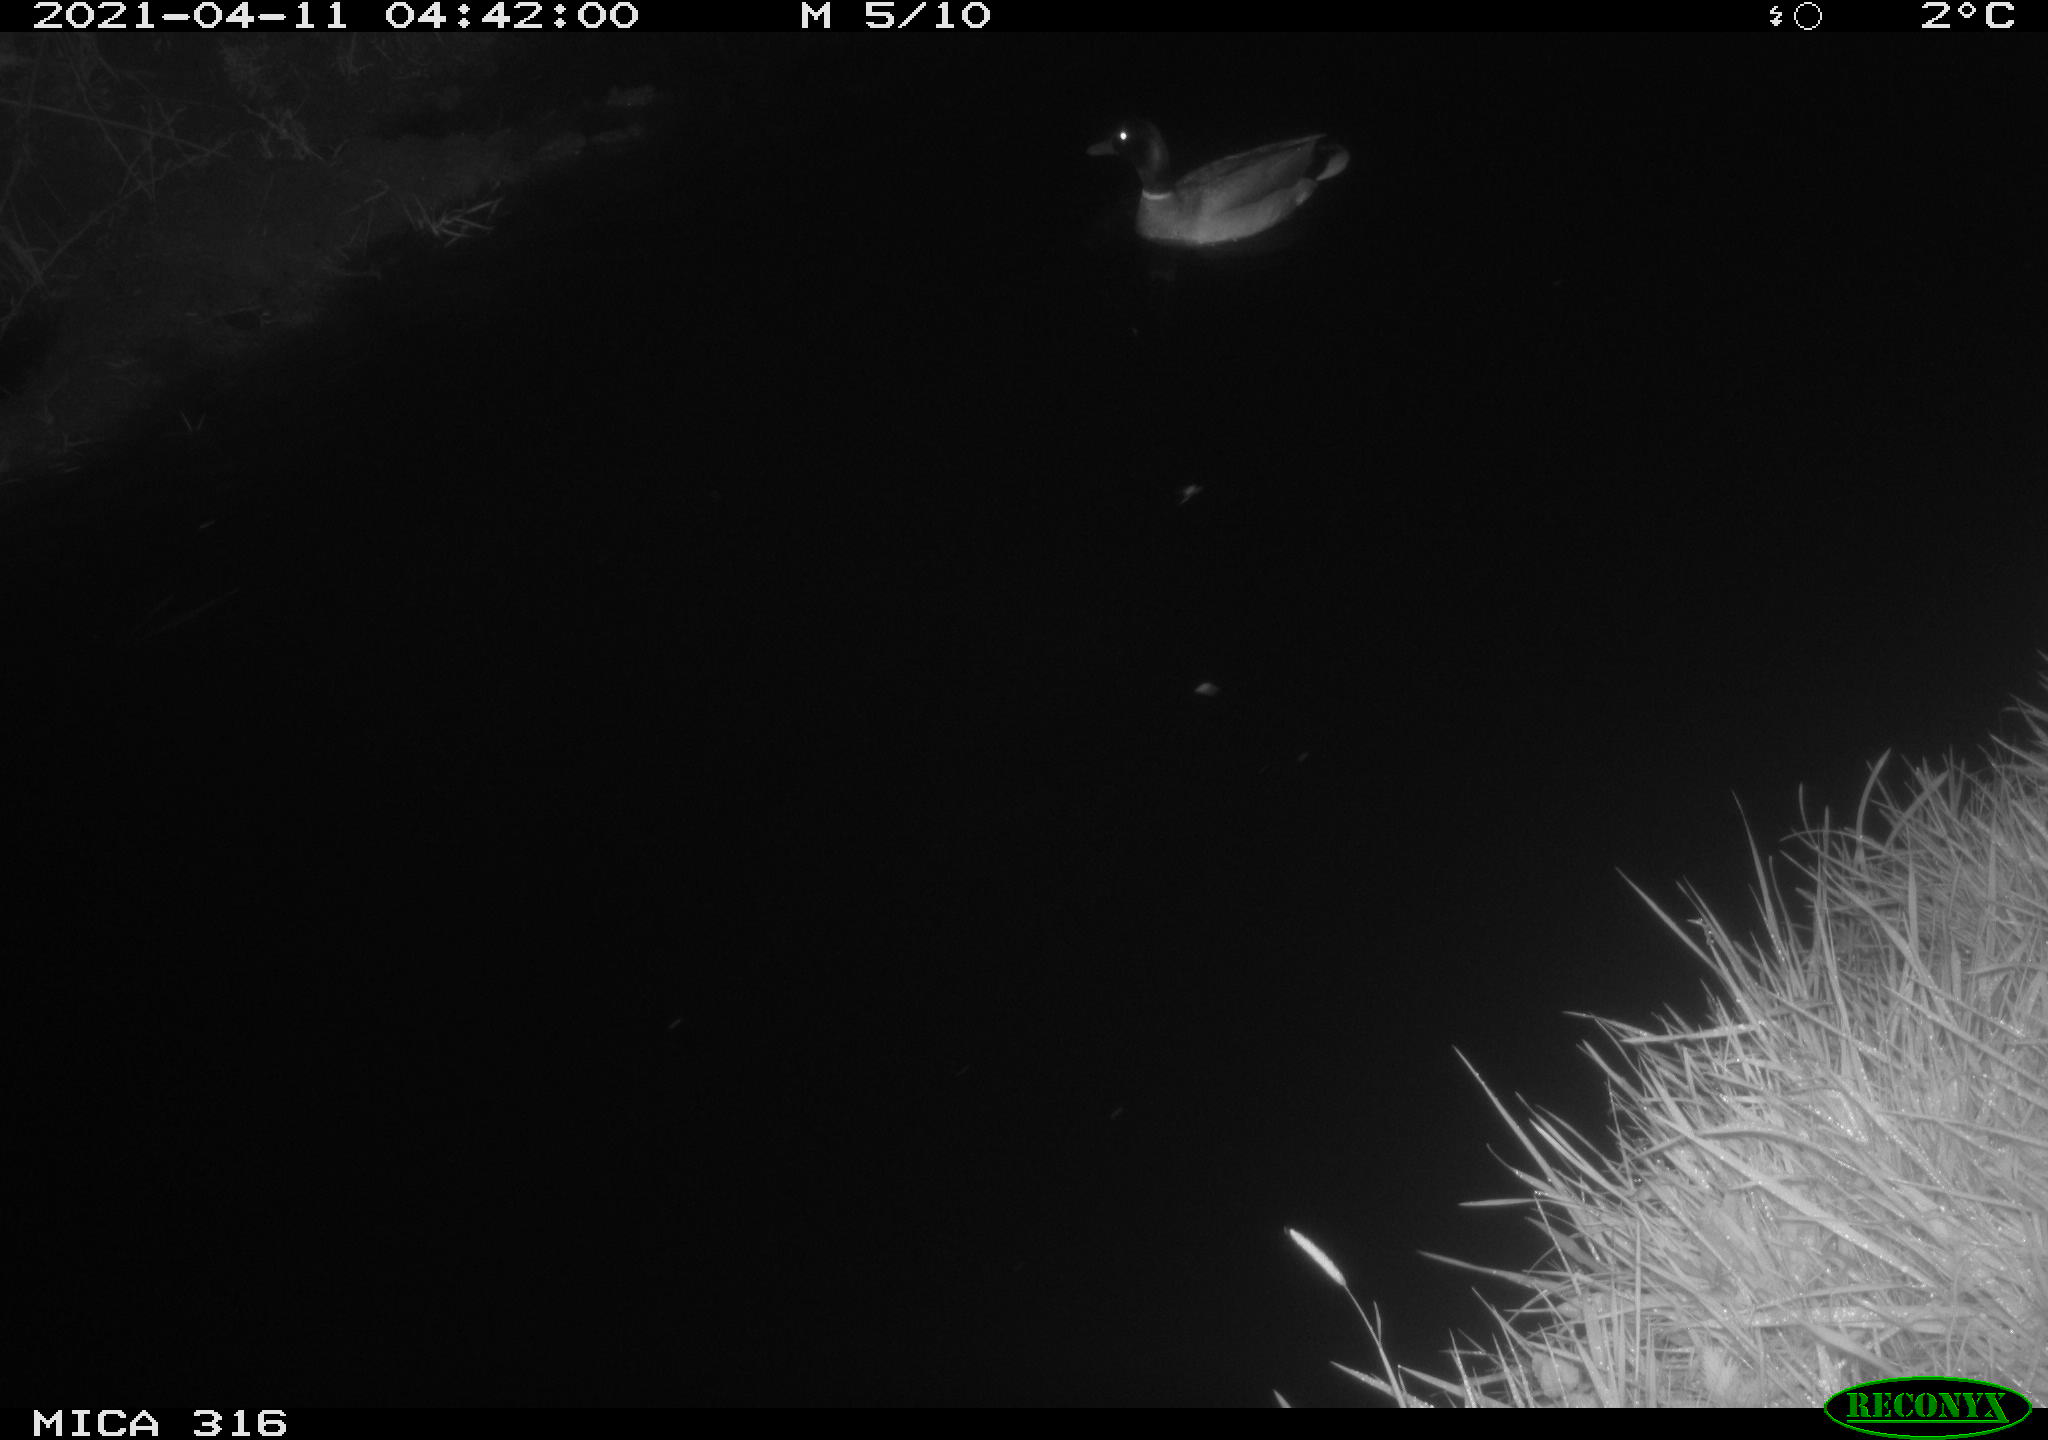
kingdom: Animalia
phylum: Chordata
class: Aves
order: Anseriformes
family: Anatidae
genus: Anas
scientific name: Anas platyrhynchos
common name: Mallard
